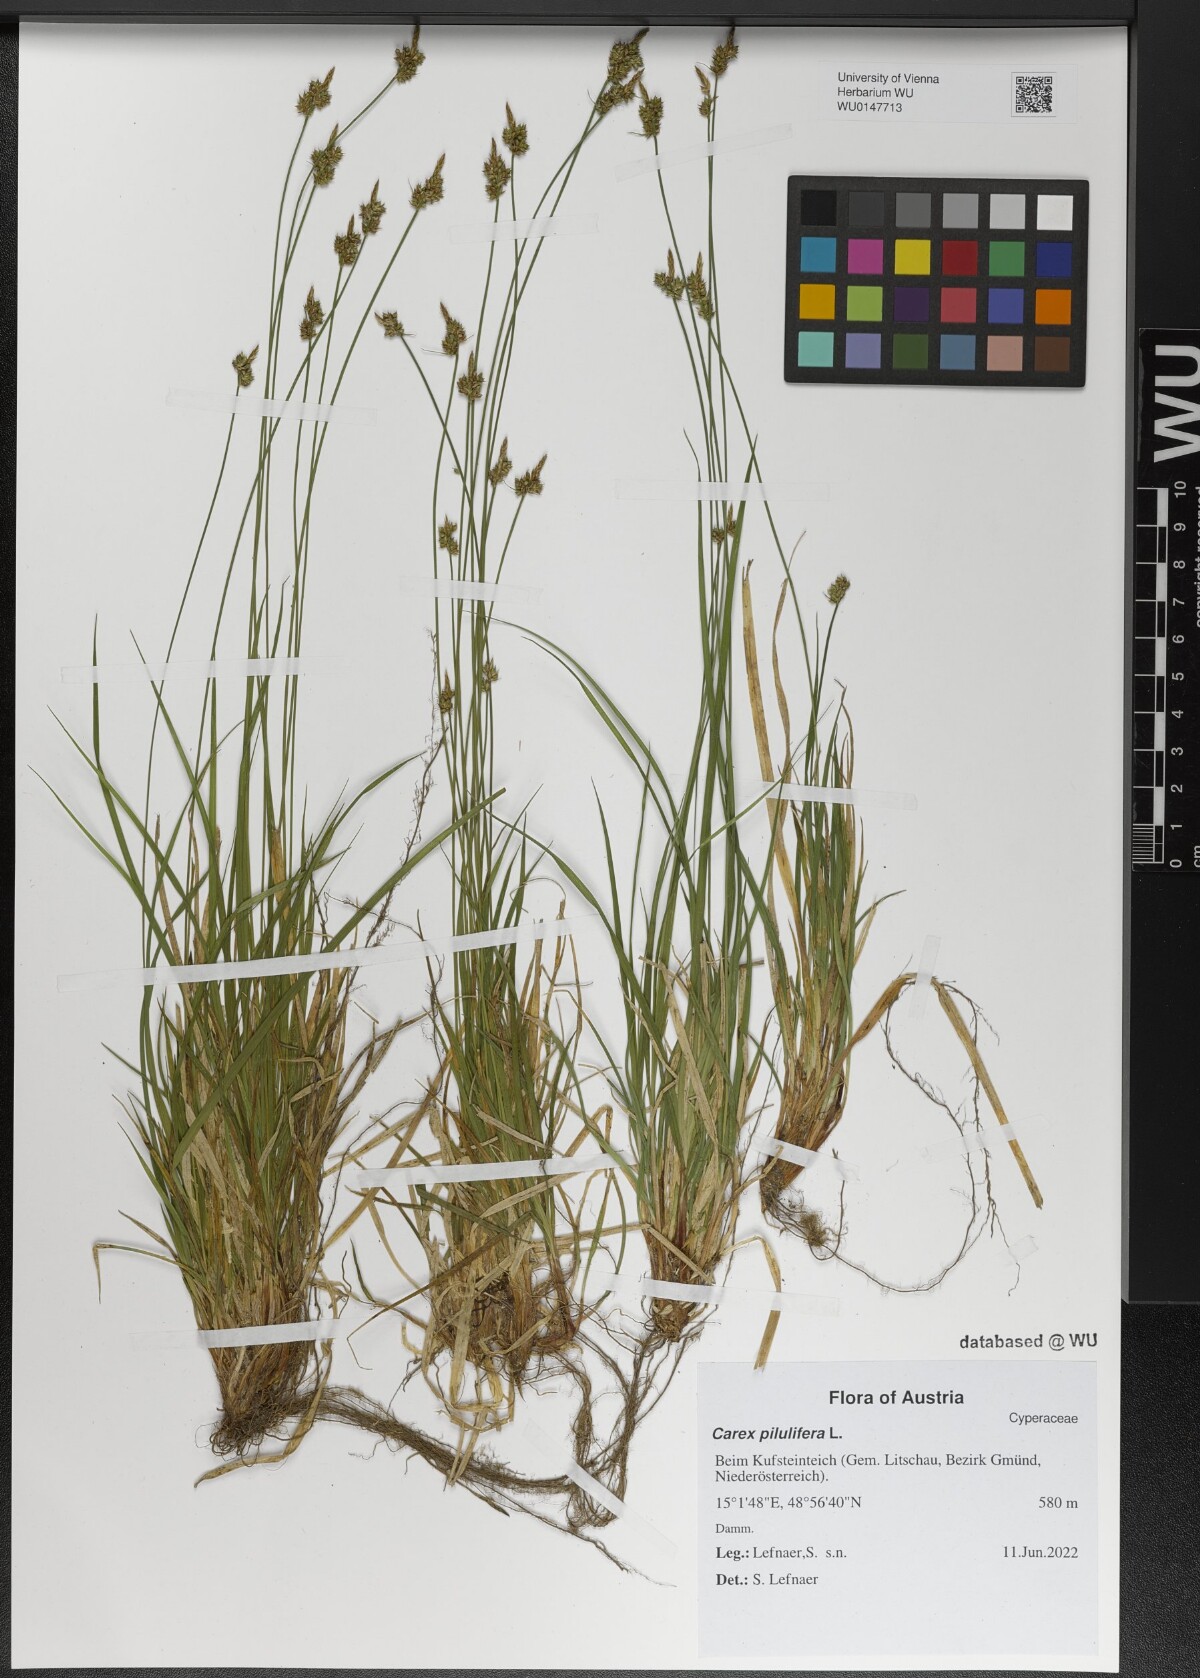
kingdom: Plantae
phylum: Tracheophyta
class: Liliopsida
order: Poales
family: Cyperaceae
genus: Carex
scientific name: Carex pilulifera
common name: Pill sedge
